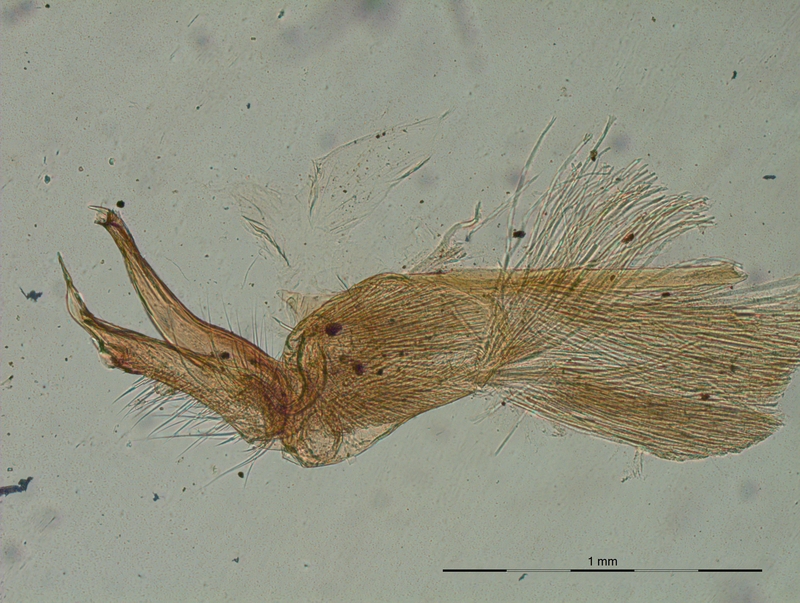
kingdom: Animalia
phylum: Arthropoda
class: Diplopoda
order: Polydesmida
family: Xystodesmidae
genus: Xystodesmus
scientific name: Xystodesmus martensii
